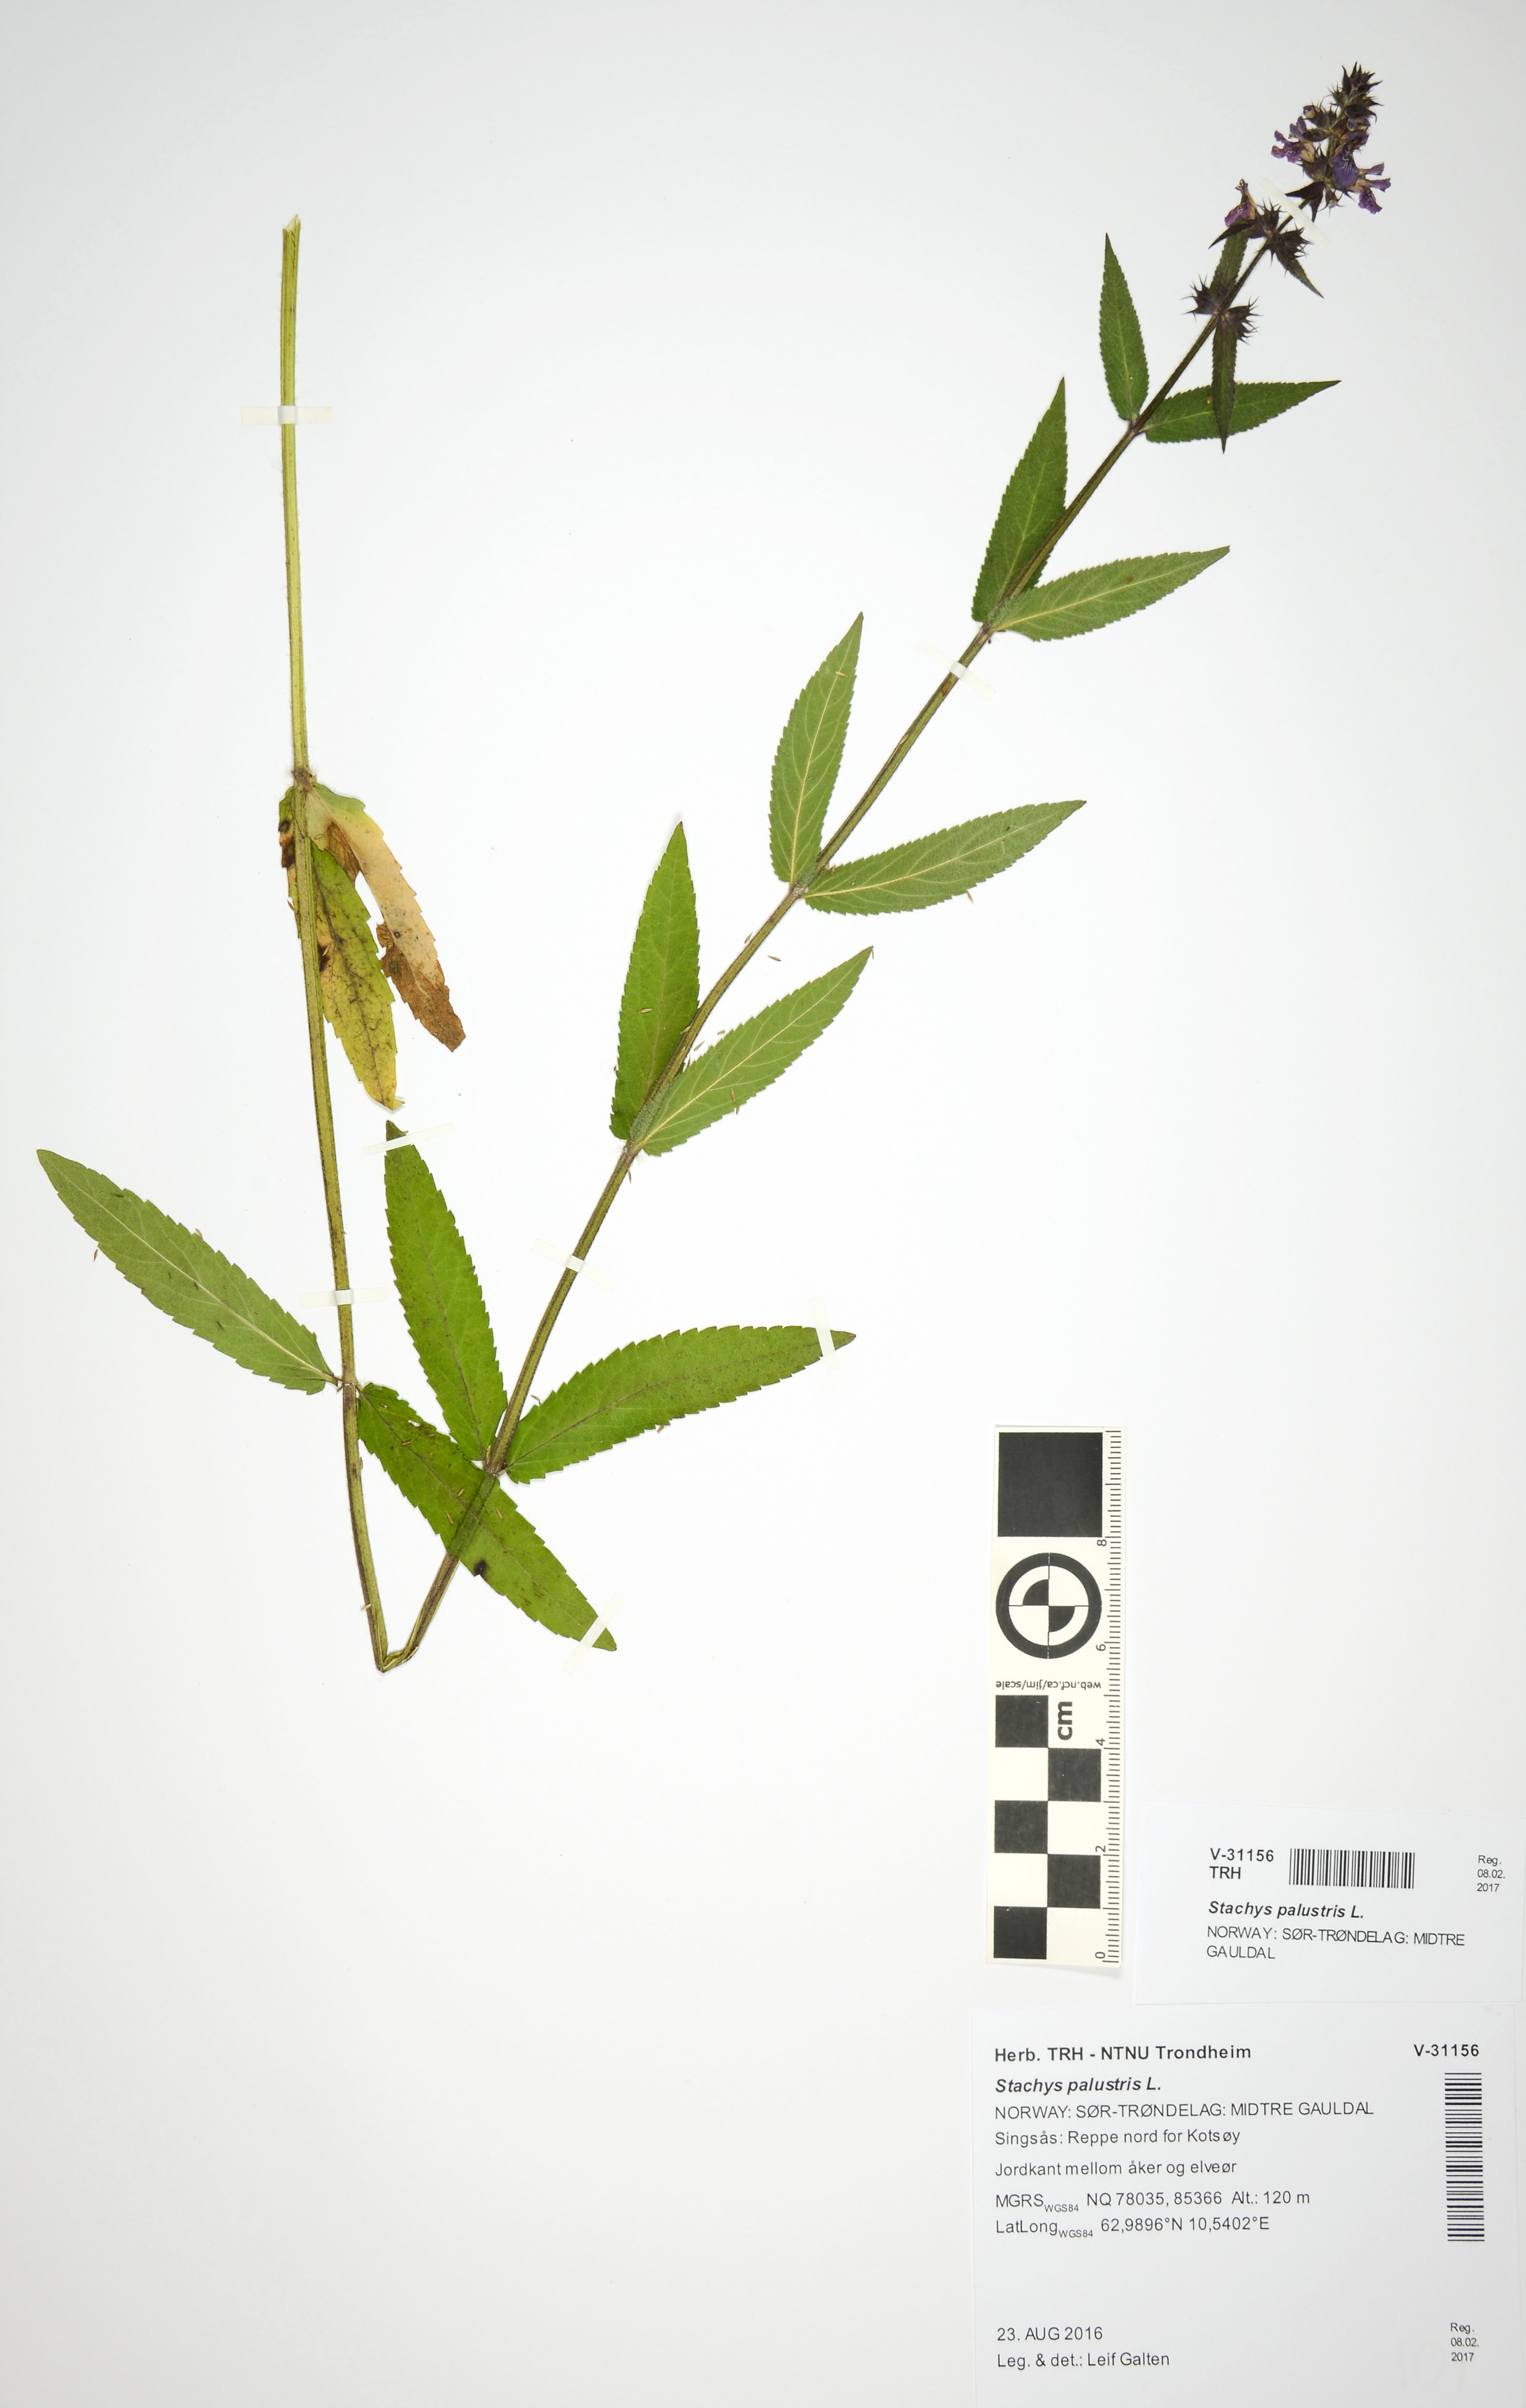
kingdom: Plantae
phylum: Tracheophyta
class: Magnoliopsida
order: Lamiales
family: Lamiaceae
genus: Stachys
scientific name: Stachys palustris
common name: Marsh woundwort
